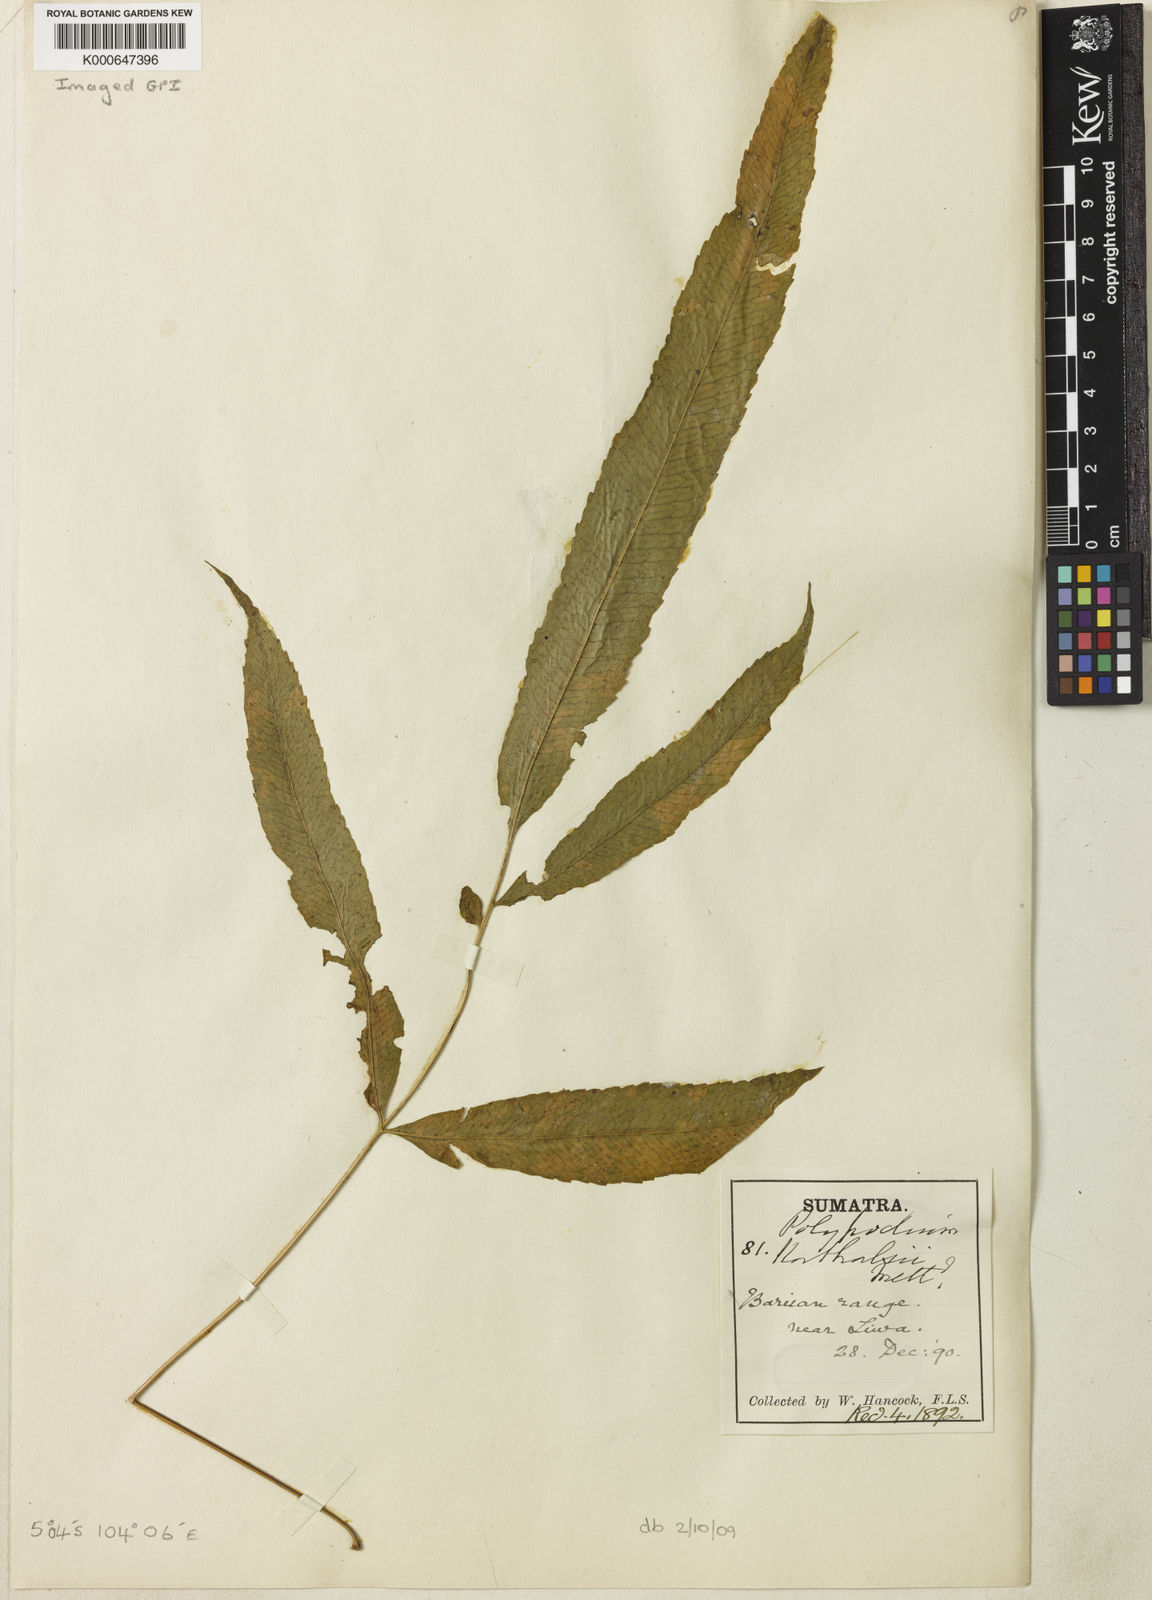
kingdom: Plantae
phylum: Tracheophyta
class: Polypodiopsida
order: Polypodiales
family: Polypodiaceae
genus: Goniophlebium
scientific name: Goniophlebium korthalsii
